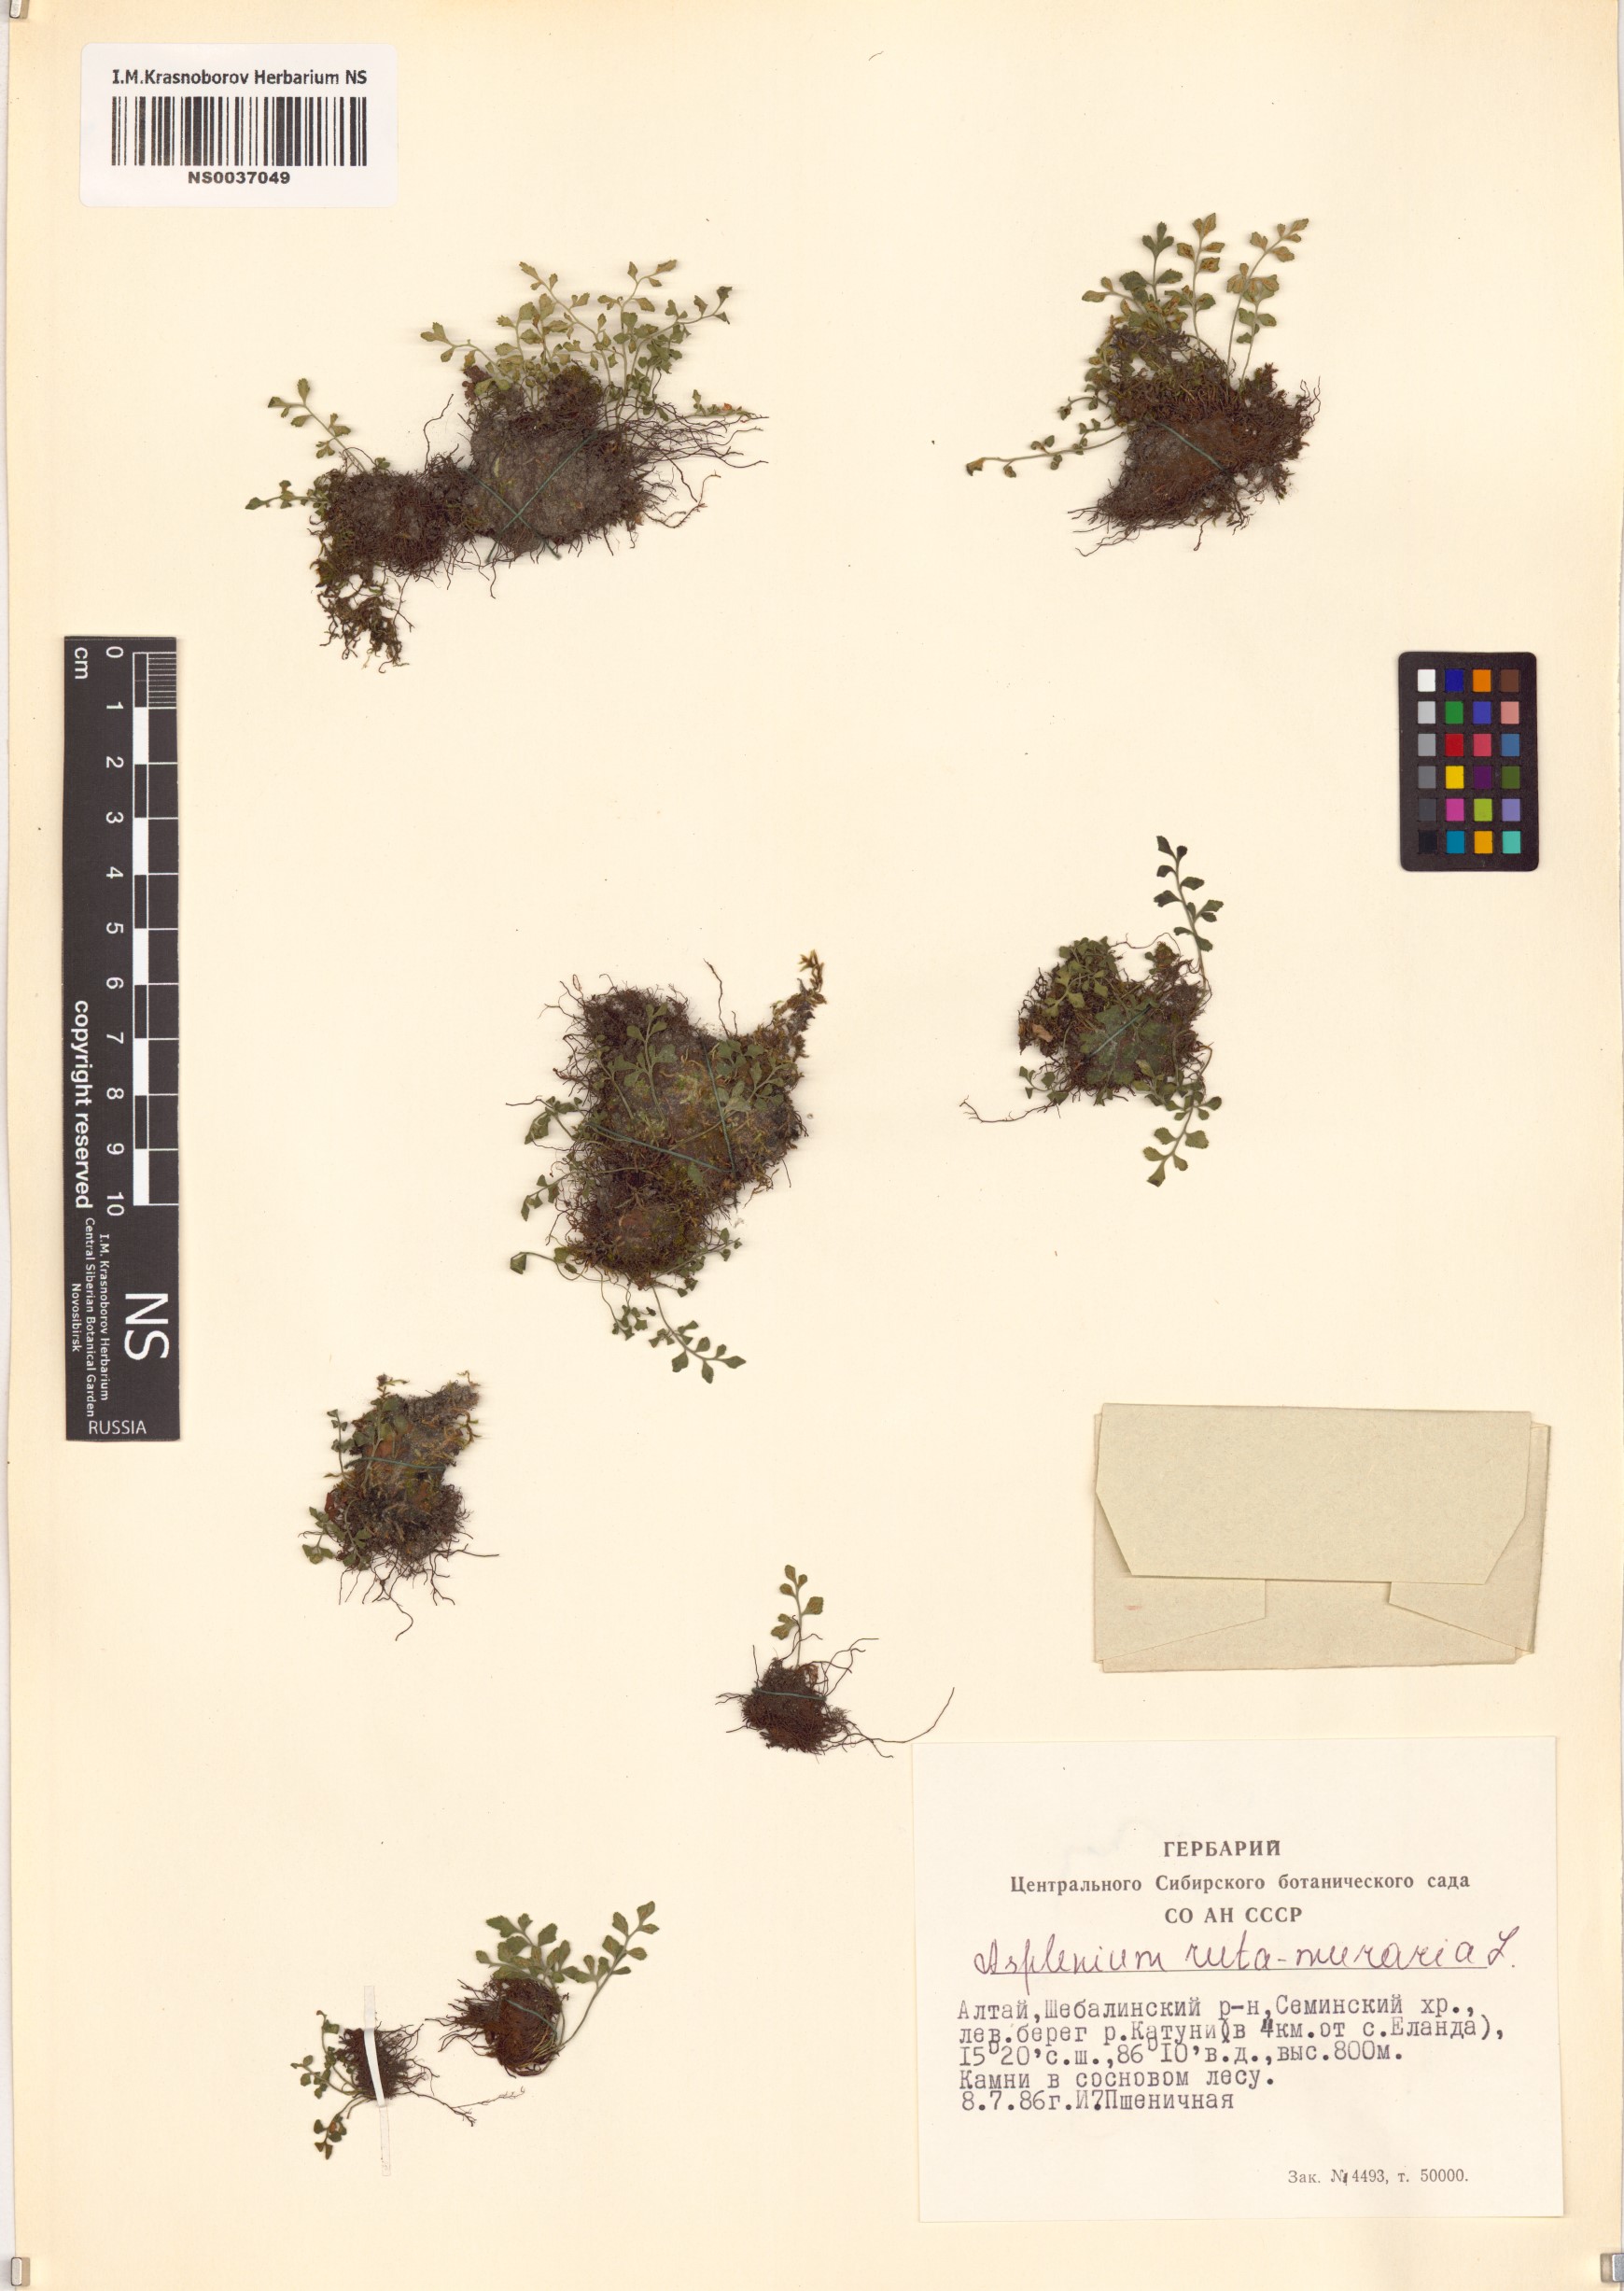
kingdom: Plantae
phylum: Tracheophyta
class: Polypodiopsida
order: Polypodiales
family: Aspleniaceae
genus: Asplenium
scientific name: Asplenium ruta-muraria
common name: Wall-rue
